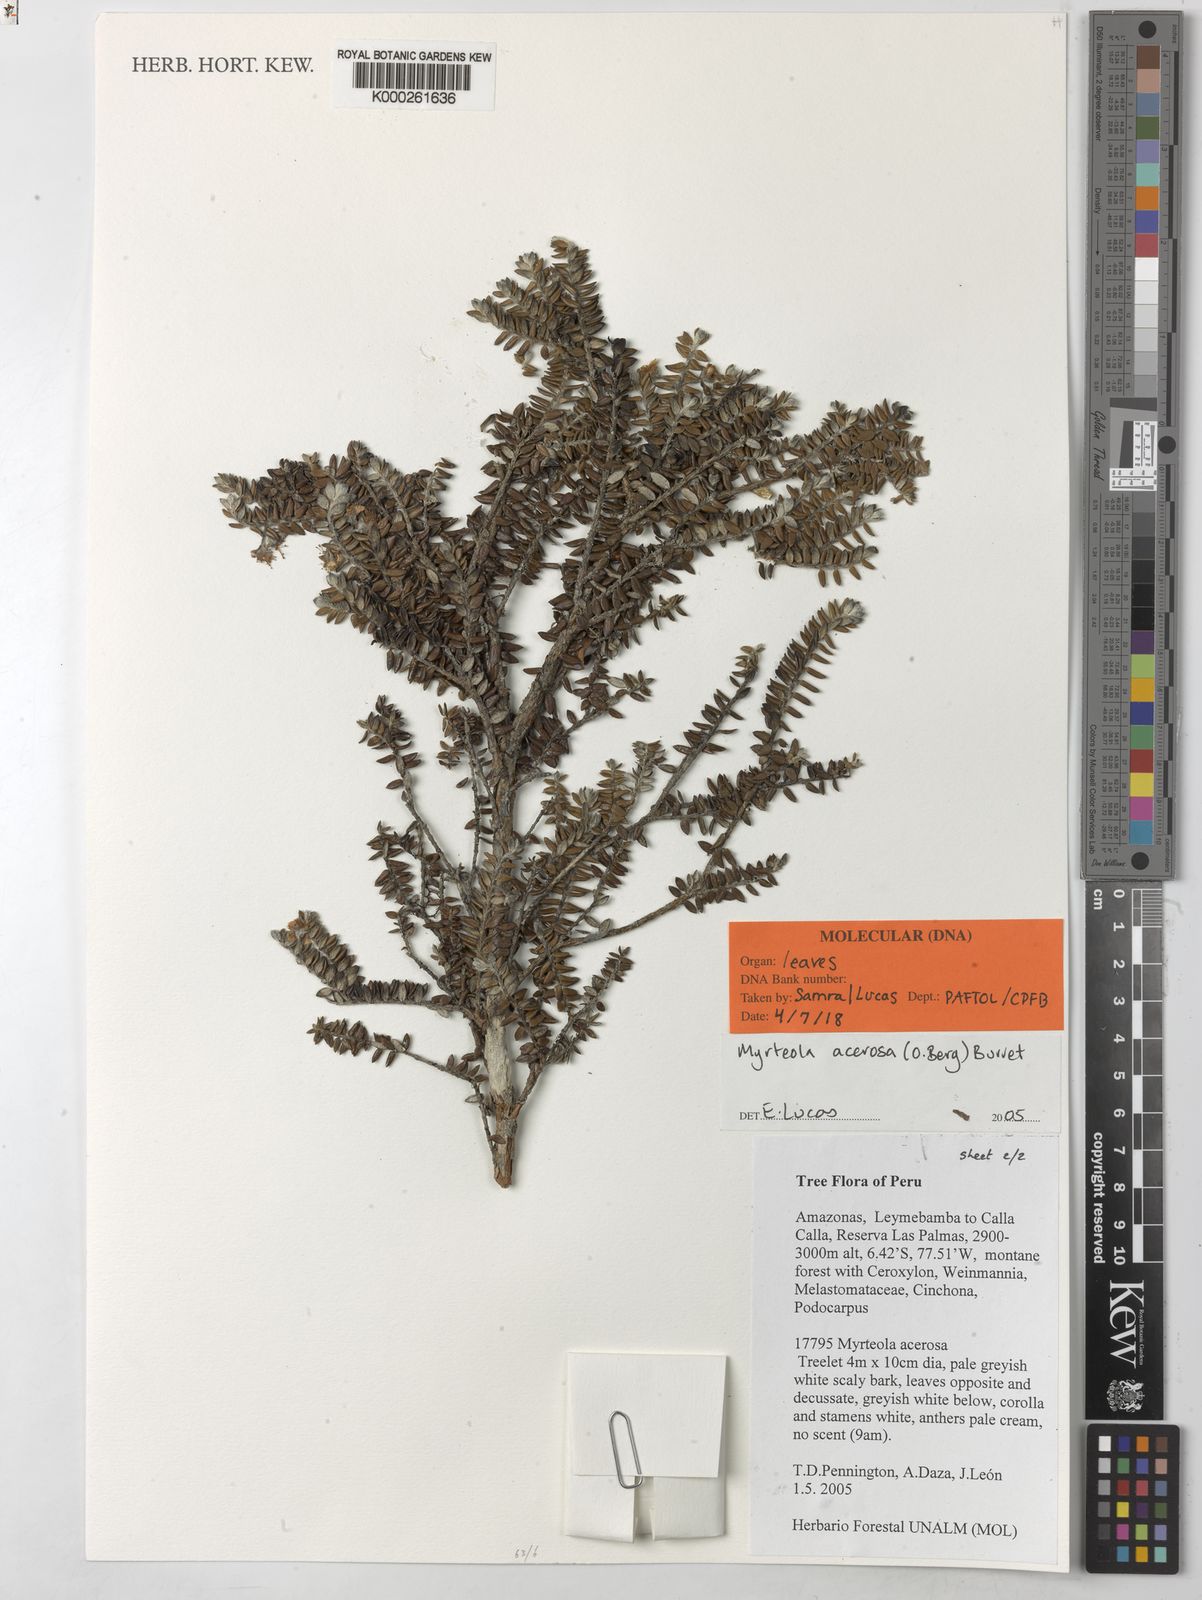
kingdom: Plantae
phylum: Tracheophyta
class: Magnoliopsida
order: Myrtales
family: Myrtaceae
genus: Myrteola
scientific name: Myrteola acerosa
